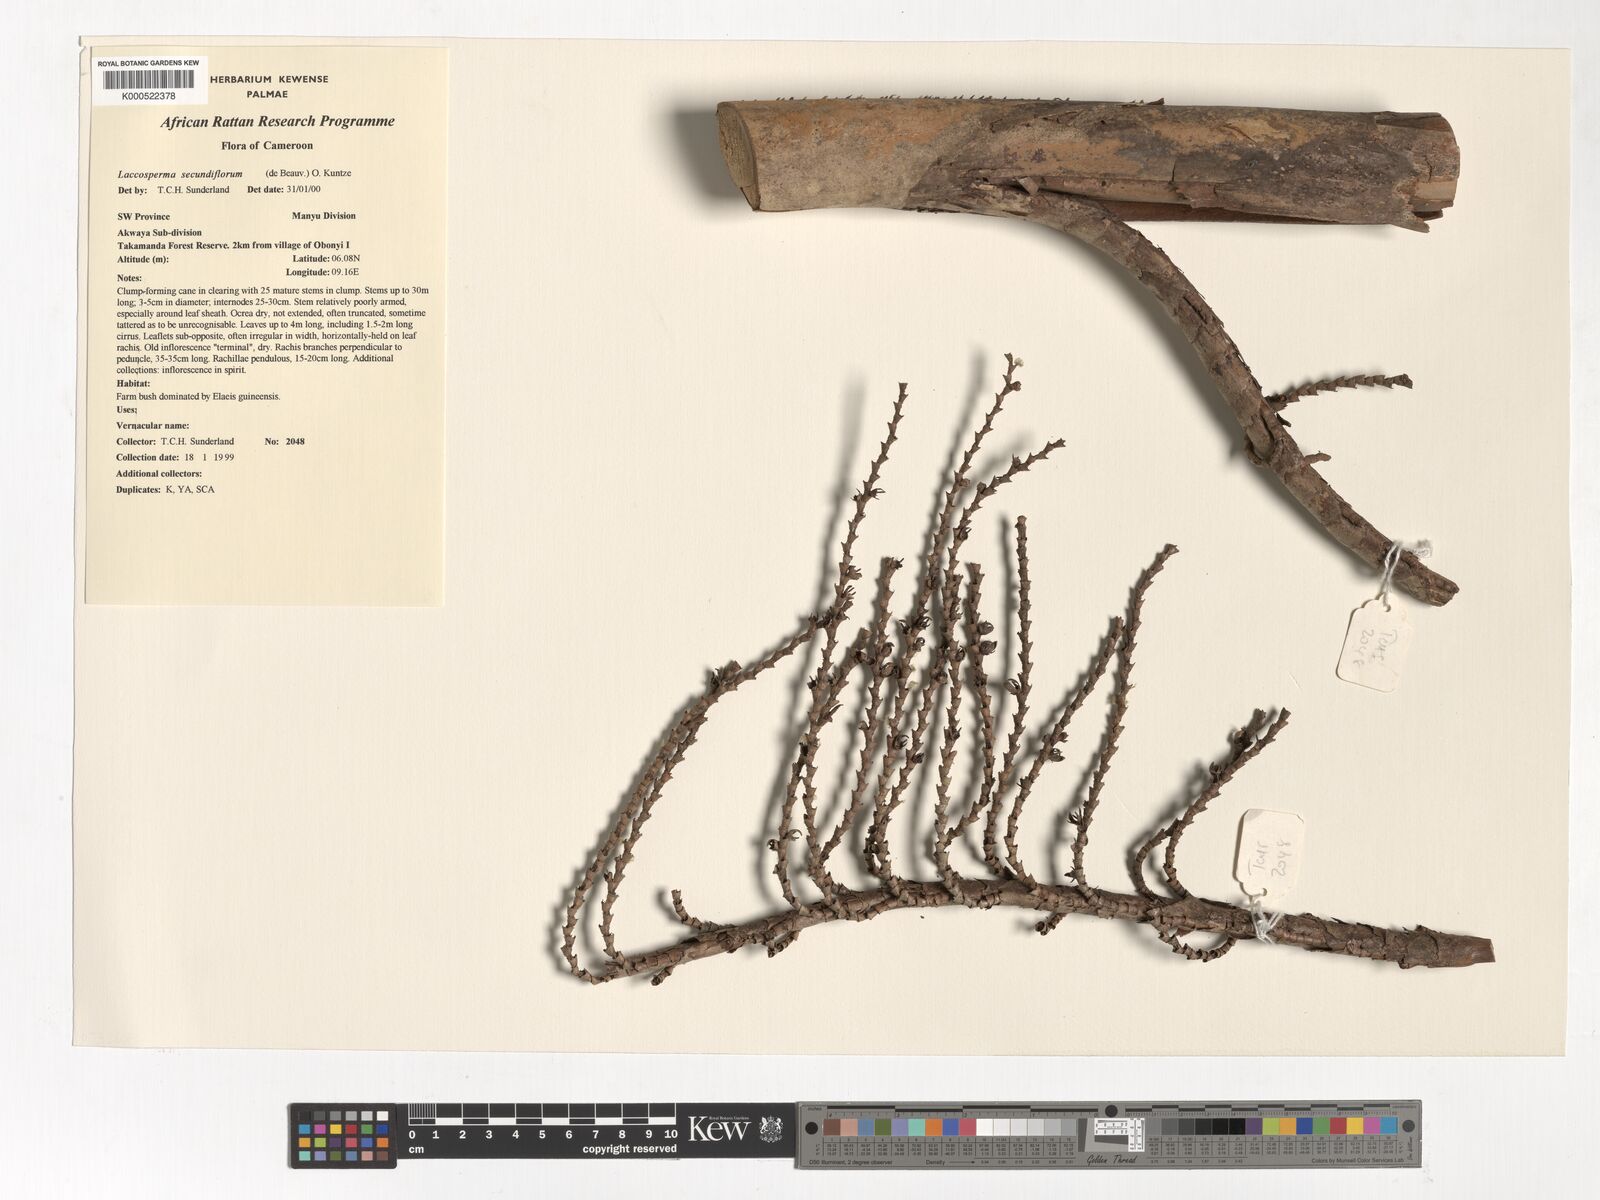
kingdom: Plantae
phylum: Tracheophyta
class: Liliopsida
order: Arecales
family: Arecaceae
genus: Laccosperma
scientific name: Laccosperma robustum
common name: Rattan
